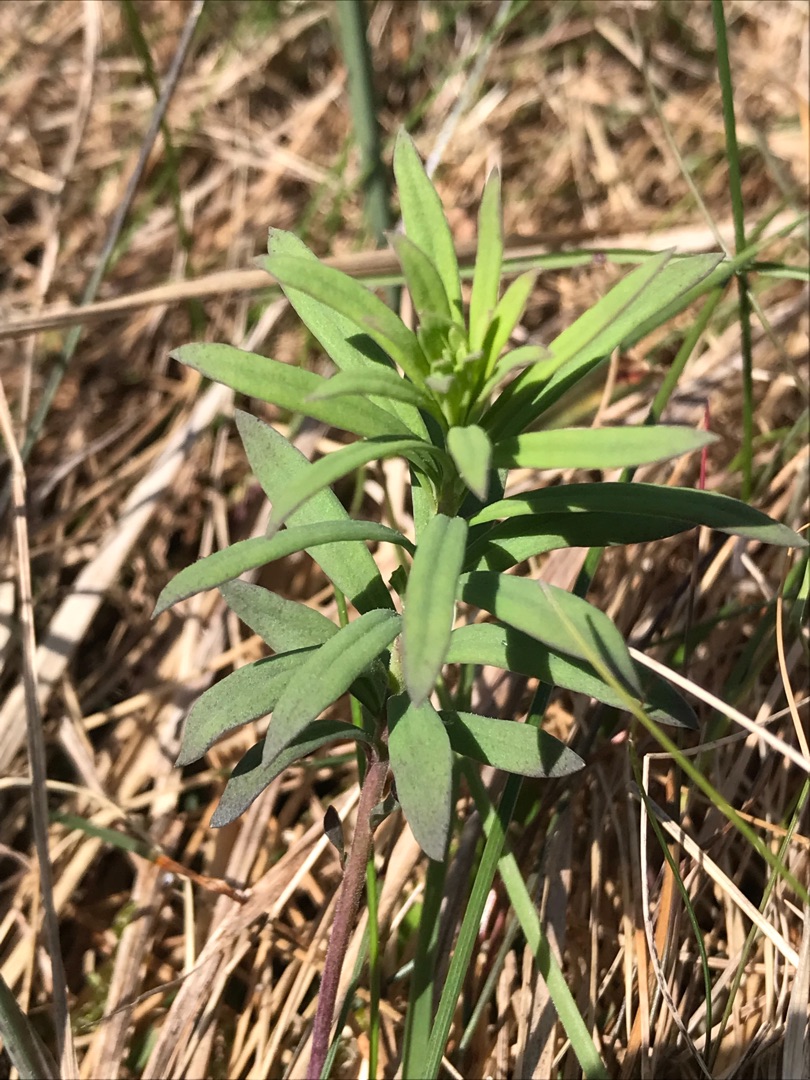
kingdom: Plantae
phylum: Tracheophyta
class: Magnoliopsida
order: Lamiales
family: Plantaginaceae
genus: Linaria
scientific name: Linaria vulgaris
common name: Almindelig torskemund
